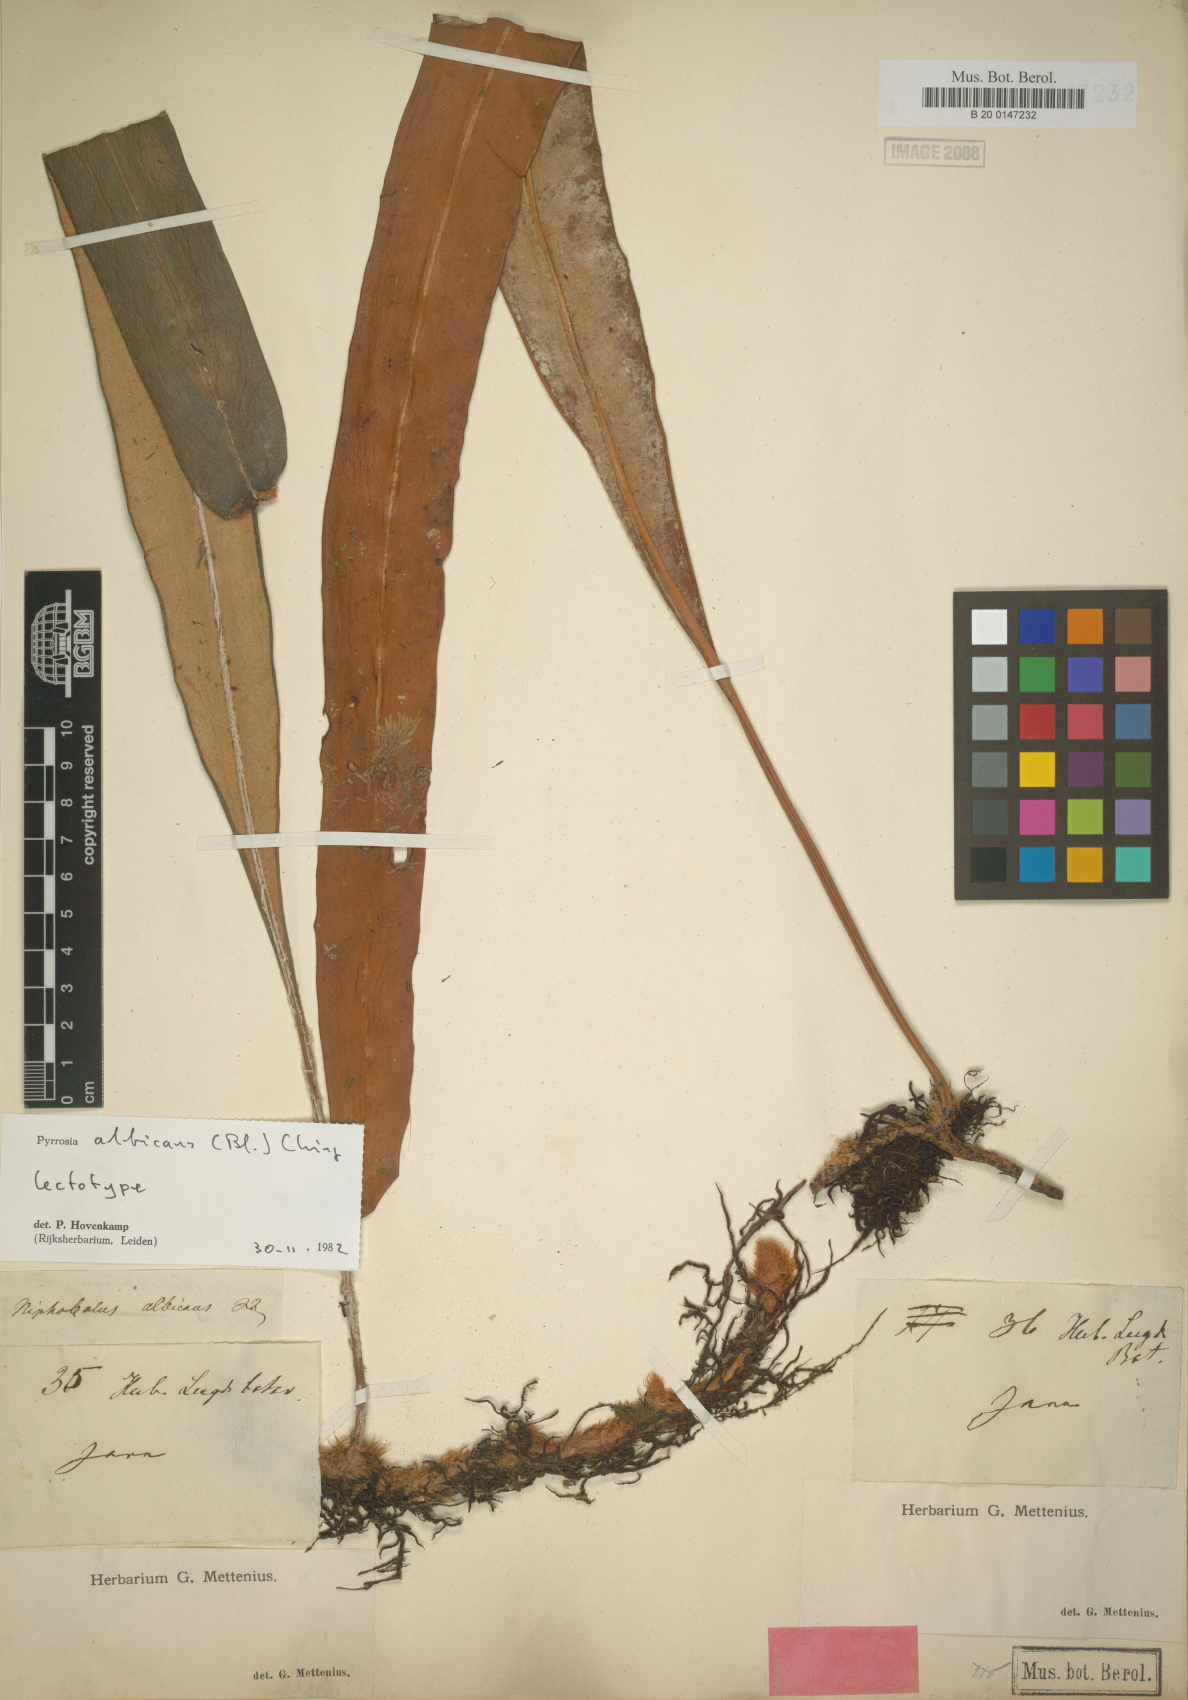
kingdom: Plantae
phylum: Tracheophyta
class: Polypodiopsida
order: Polypodiales
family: Polypodiaceae
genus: Pyrrosia
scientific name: Pyrrosia albicans
